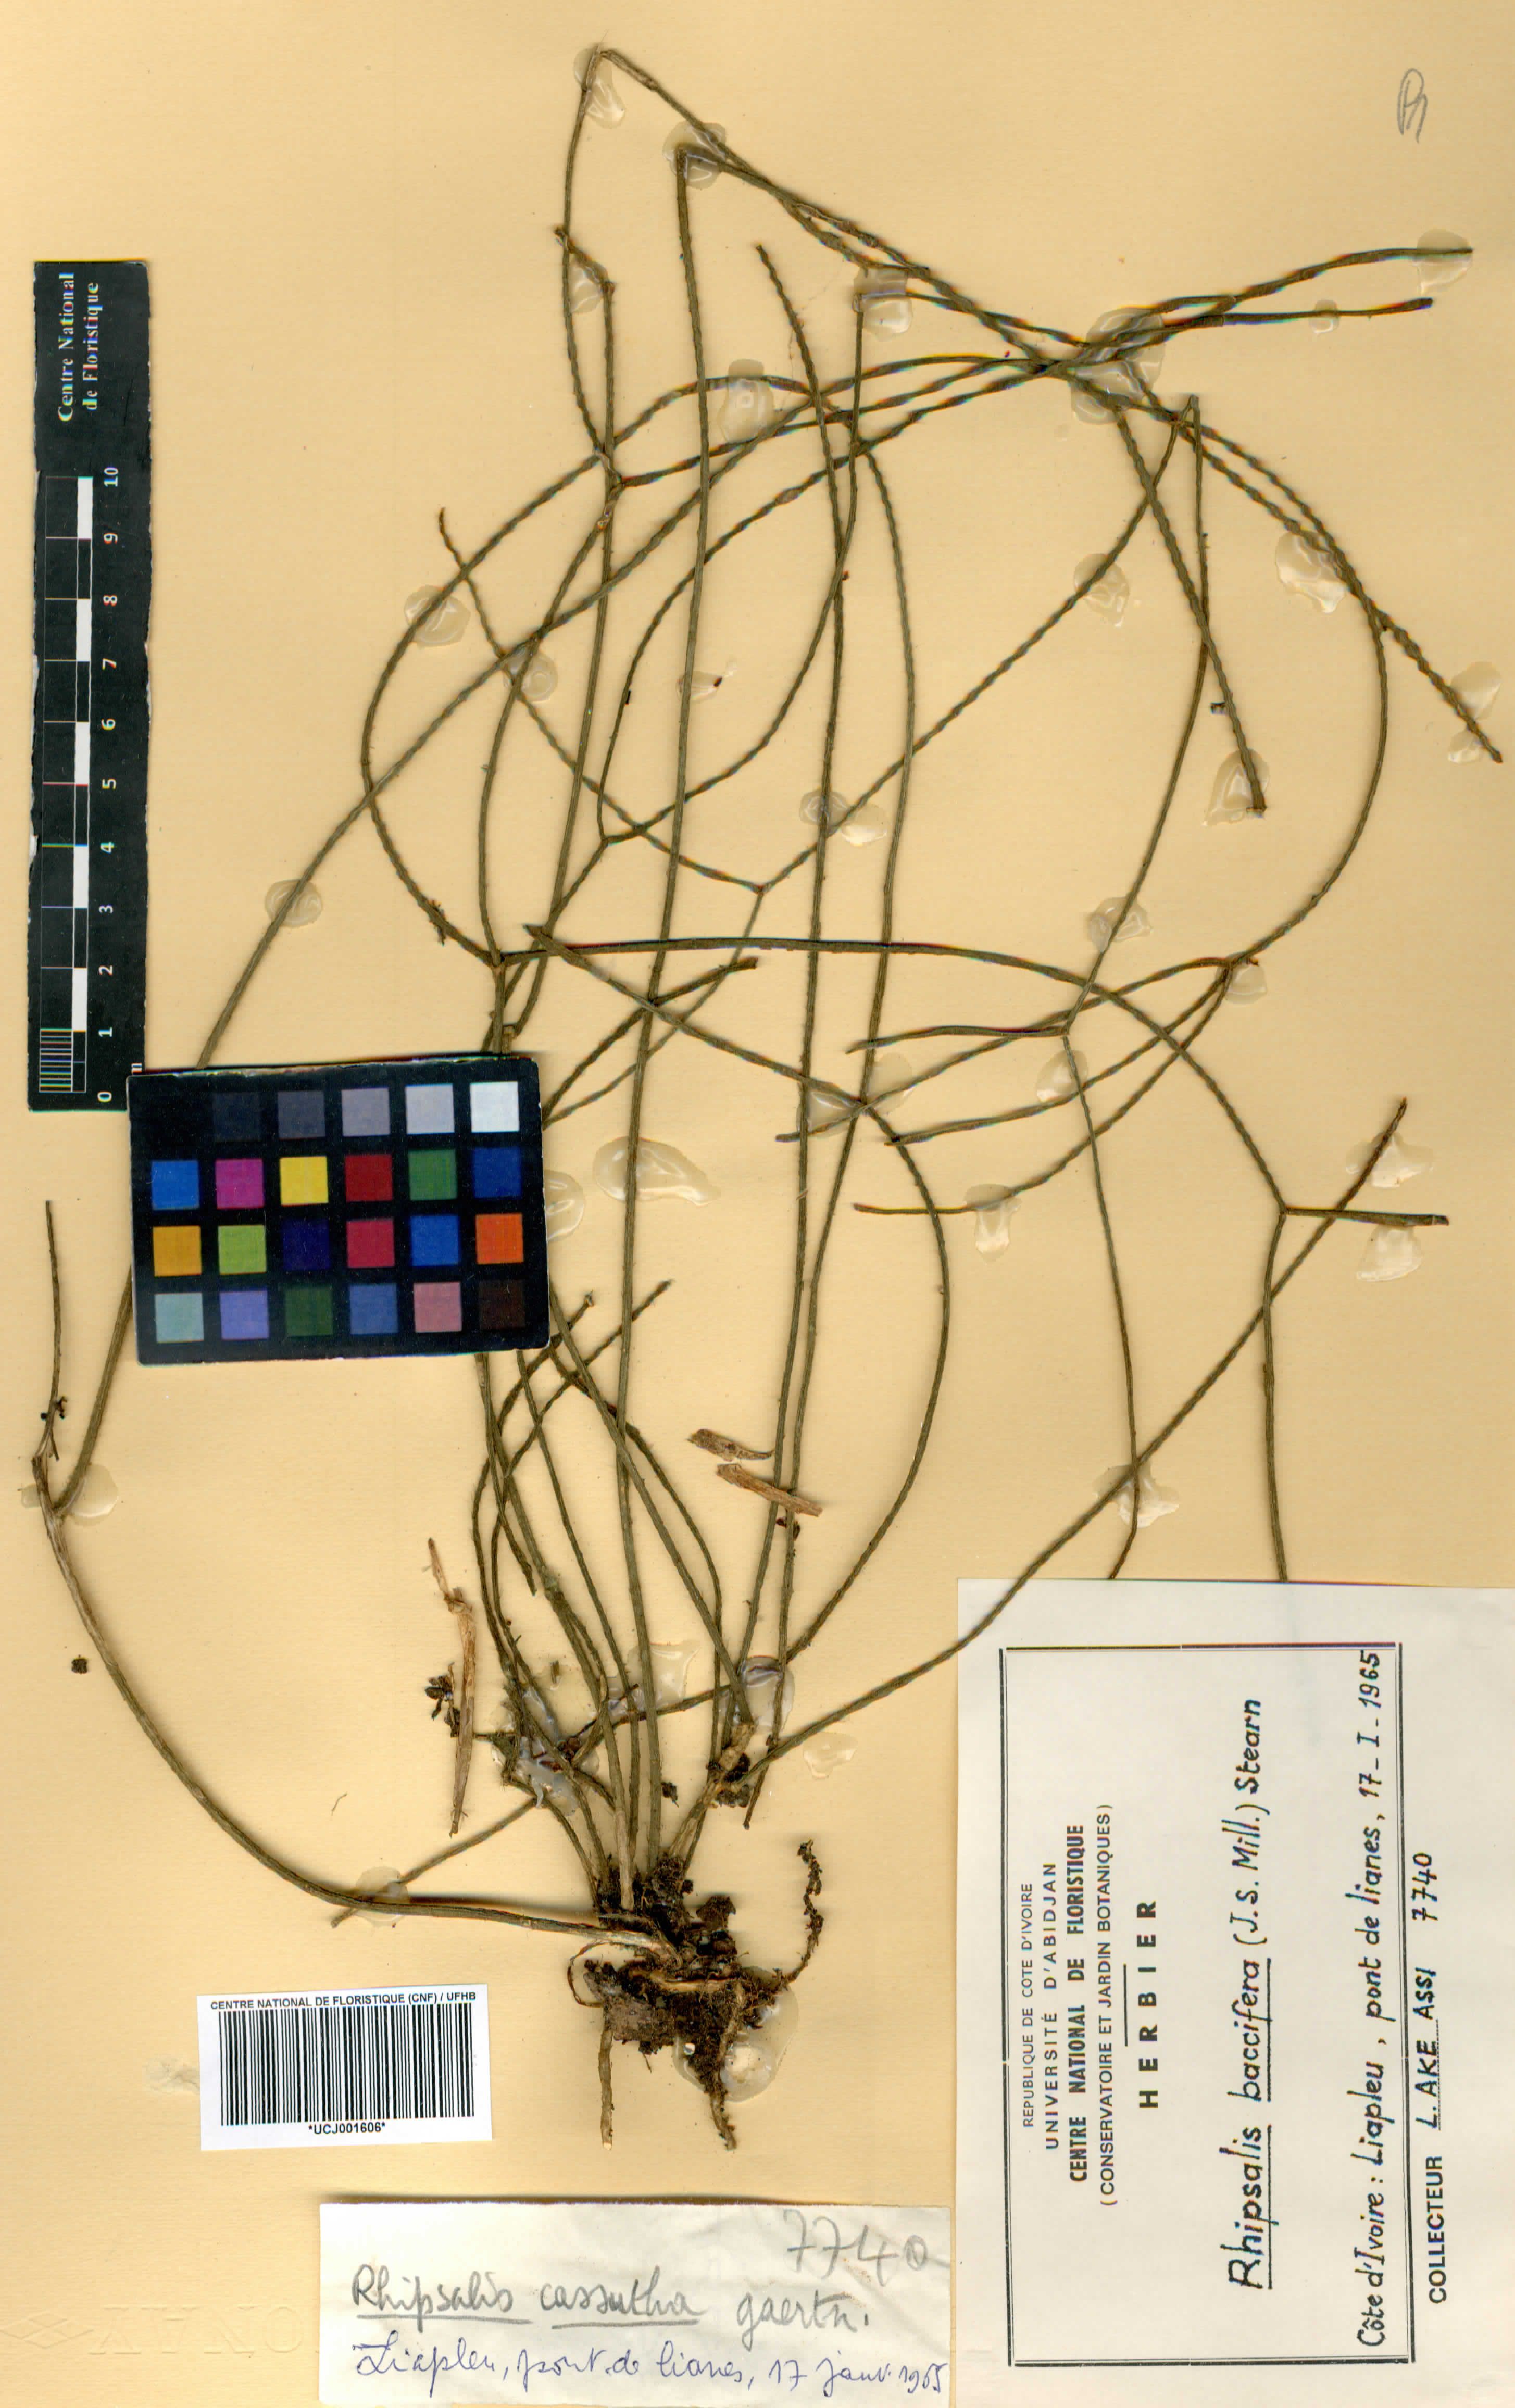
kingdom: Plantae
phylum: Tracheophyta
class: Magnoliopsida
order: Caryophyllales
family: Cactaceae
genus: Rhipsalis
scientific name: Rhipsalis baccifera
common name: Mistletoe cactus
